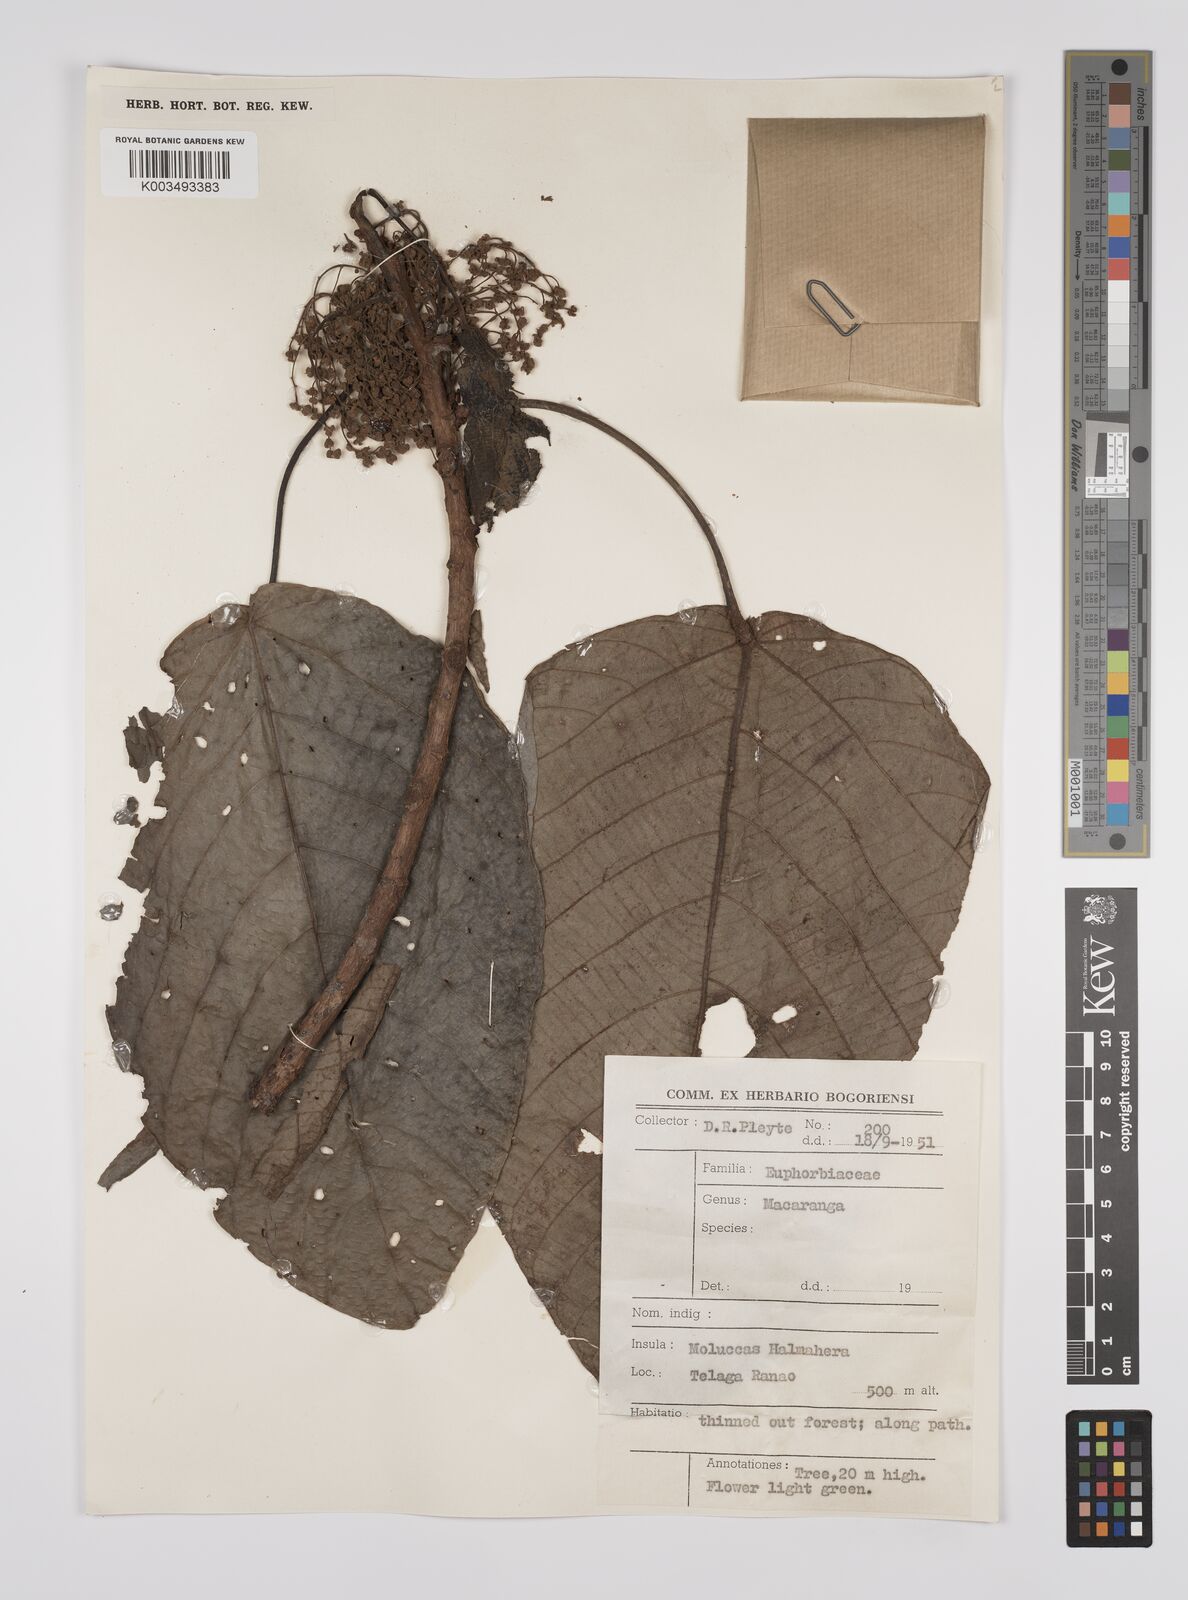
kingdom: Plantae
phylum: Tracheophyta
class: Magnoliopsida
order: Malpighiales
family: Euphorbiaceae
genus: Macaranga
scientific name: Macaranga inermis
